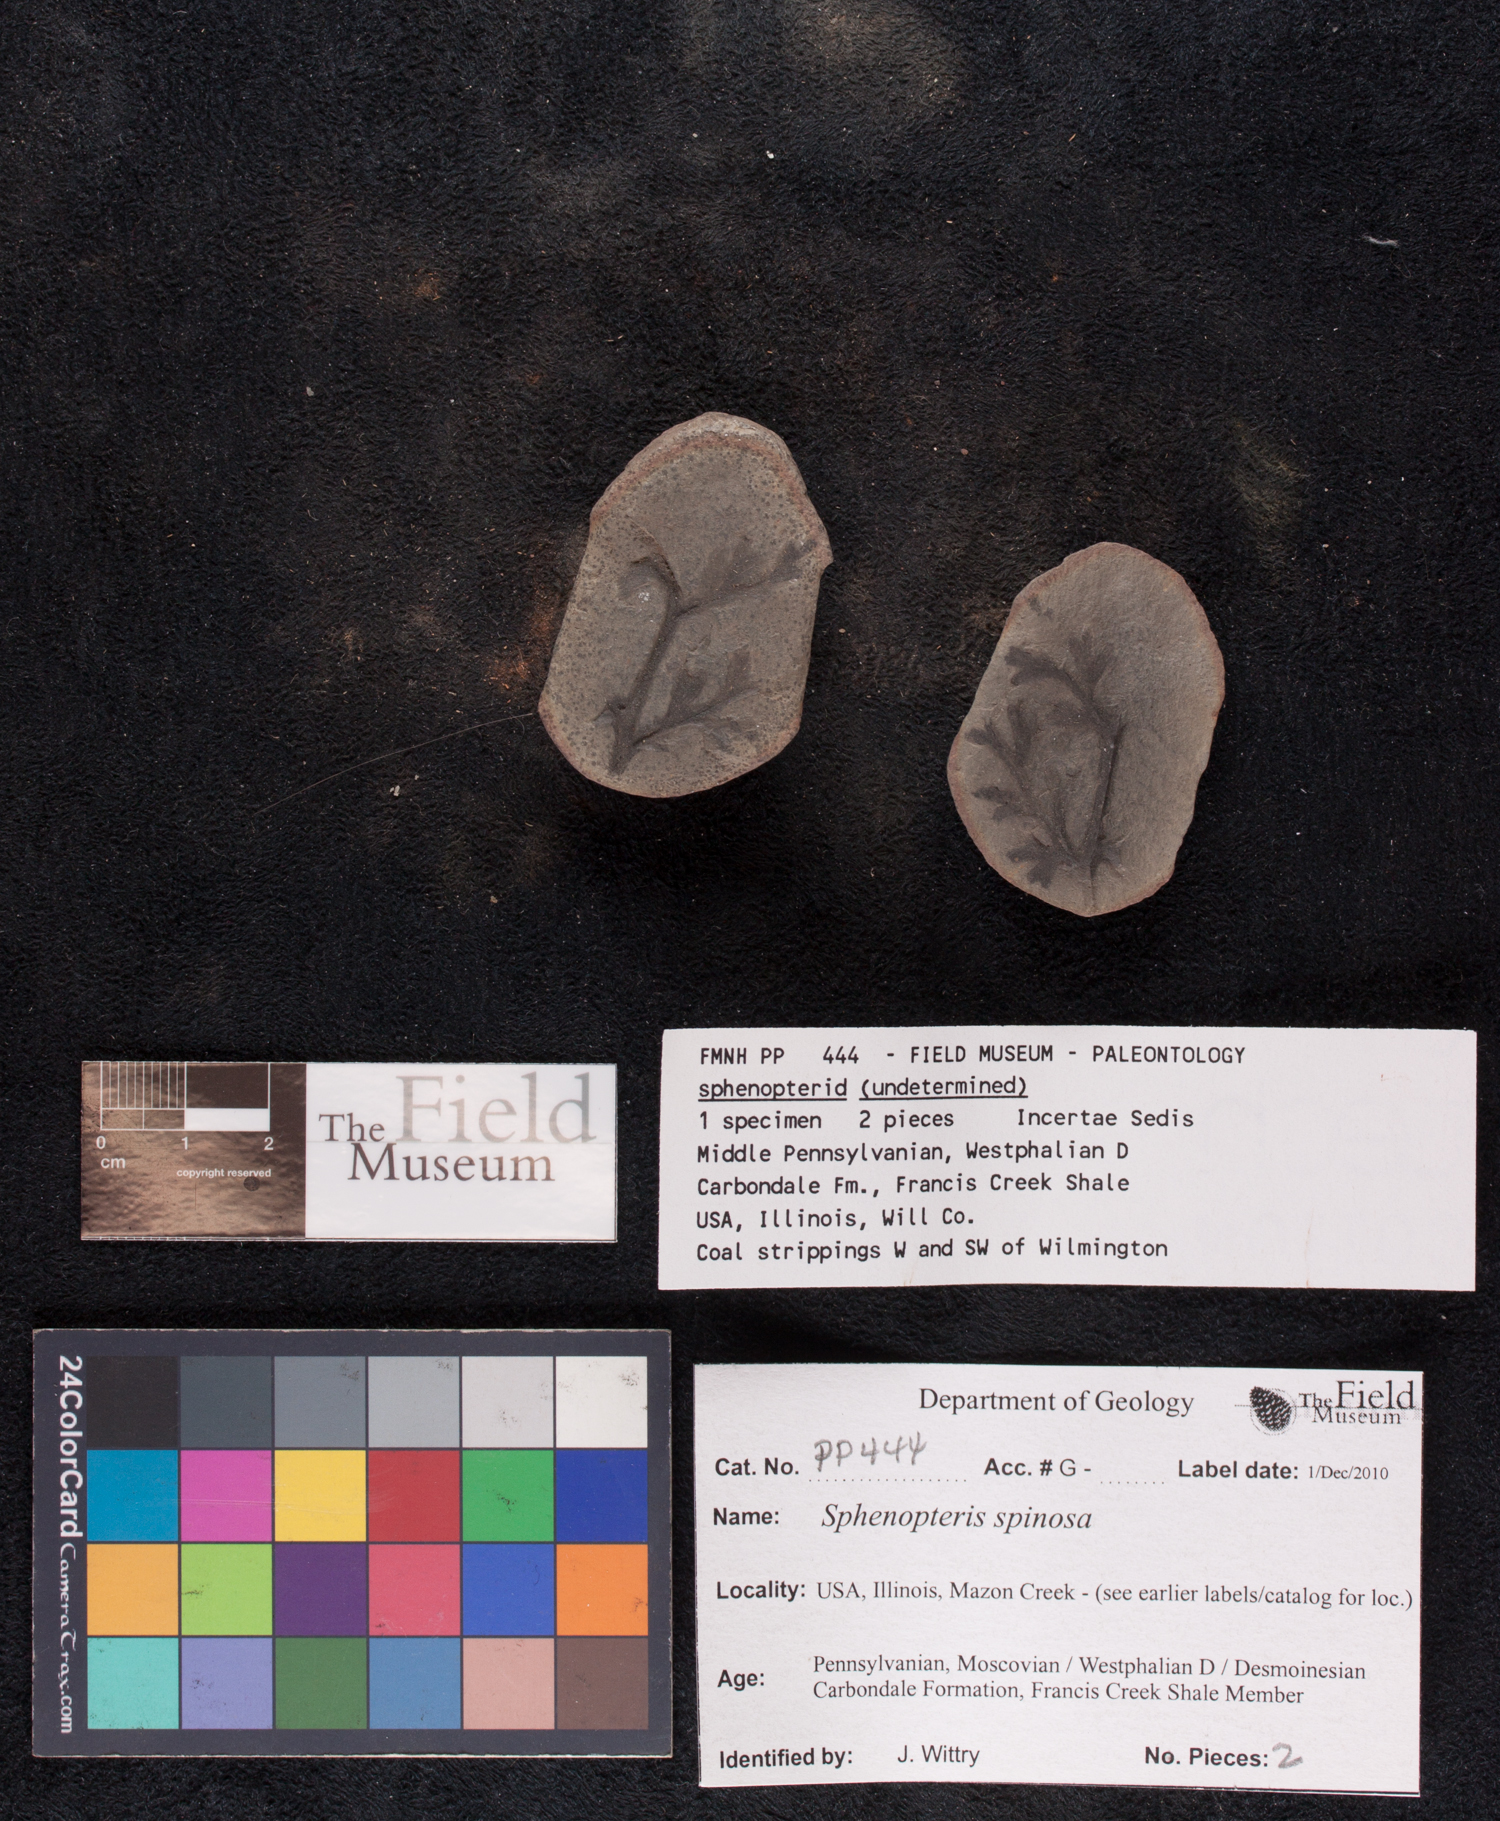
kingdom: Plantae
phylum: Tracheophyta
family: Lyginopteridaceae
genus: Sphenopteris
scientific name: Sphenopteris
